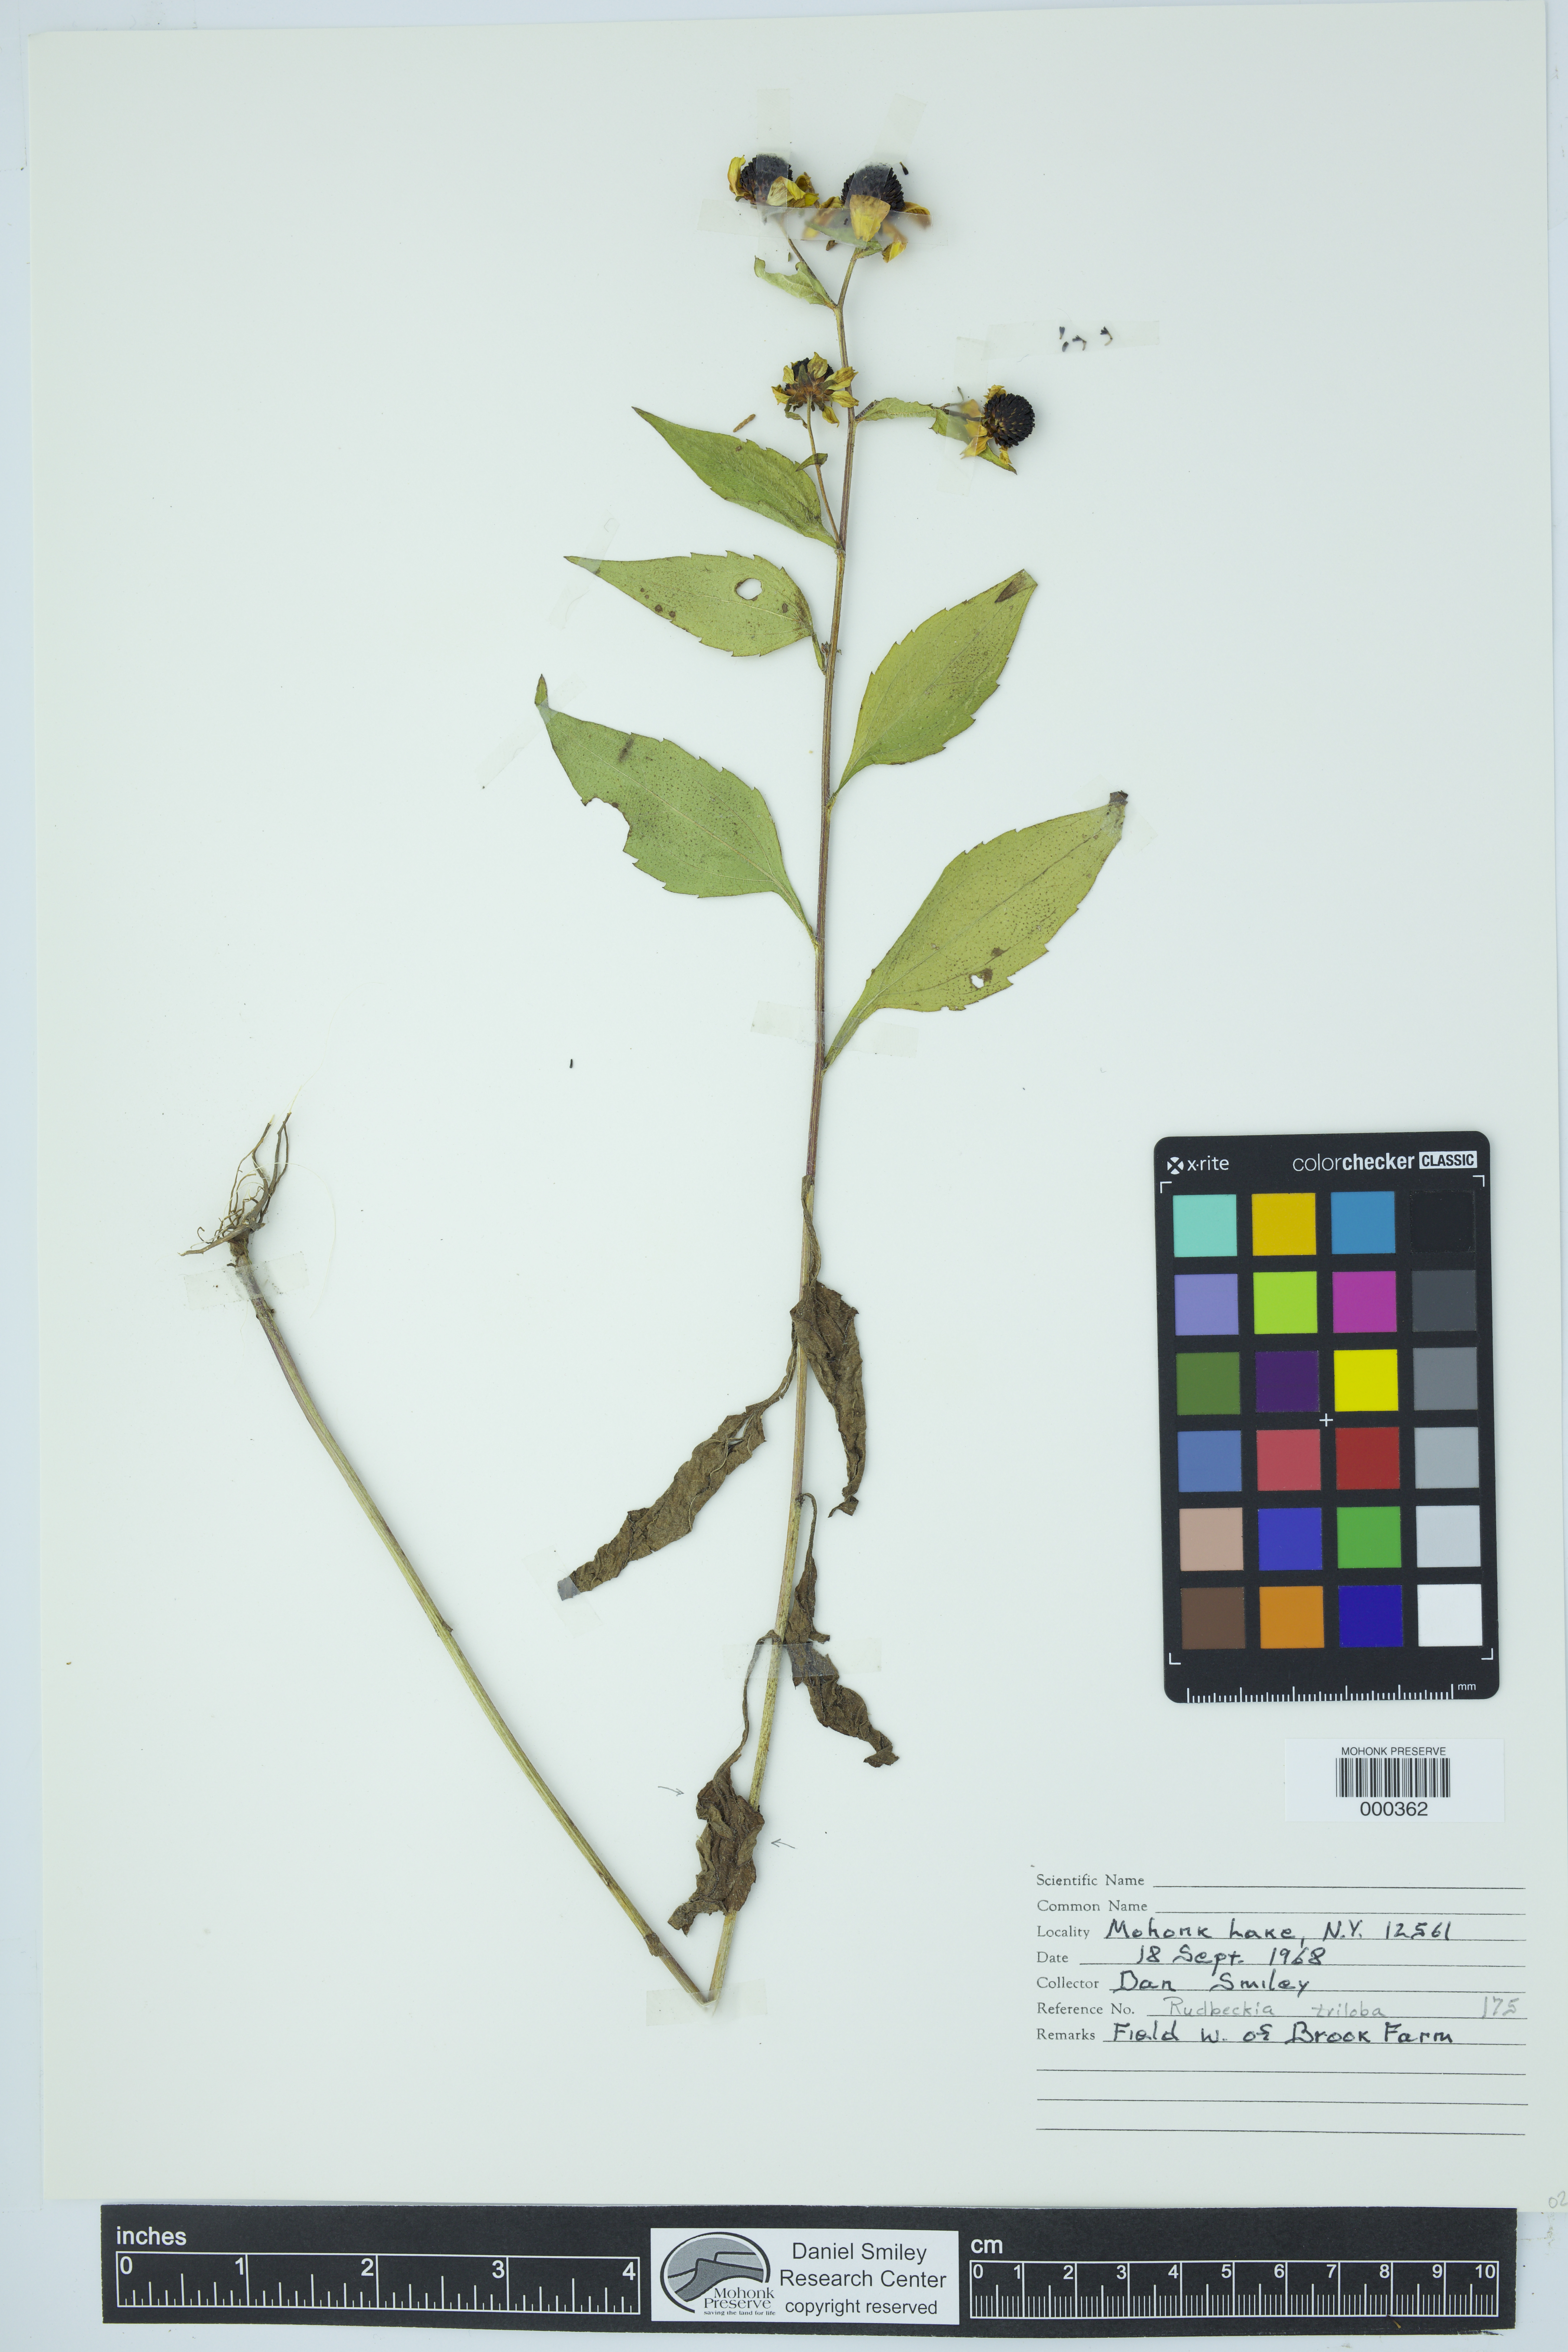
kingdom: Plantae
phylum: Tracheophyta
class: Magnoliopsida
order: Asterales
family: Asteraceae
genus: Rudbeckia
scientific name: Rudbeckia triloba
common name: Thin-leaved coneflower
